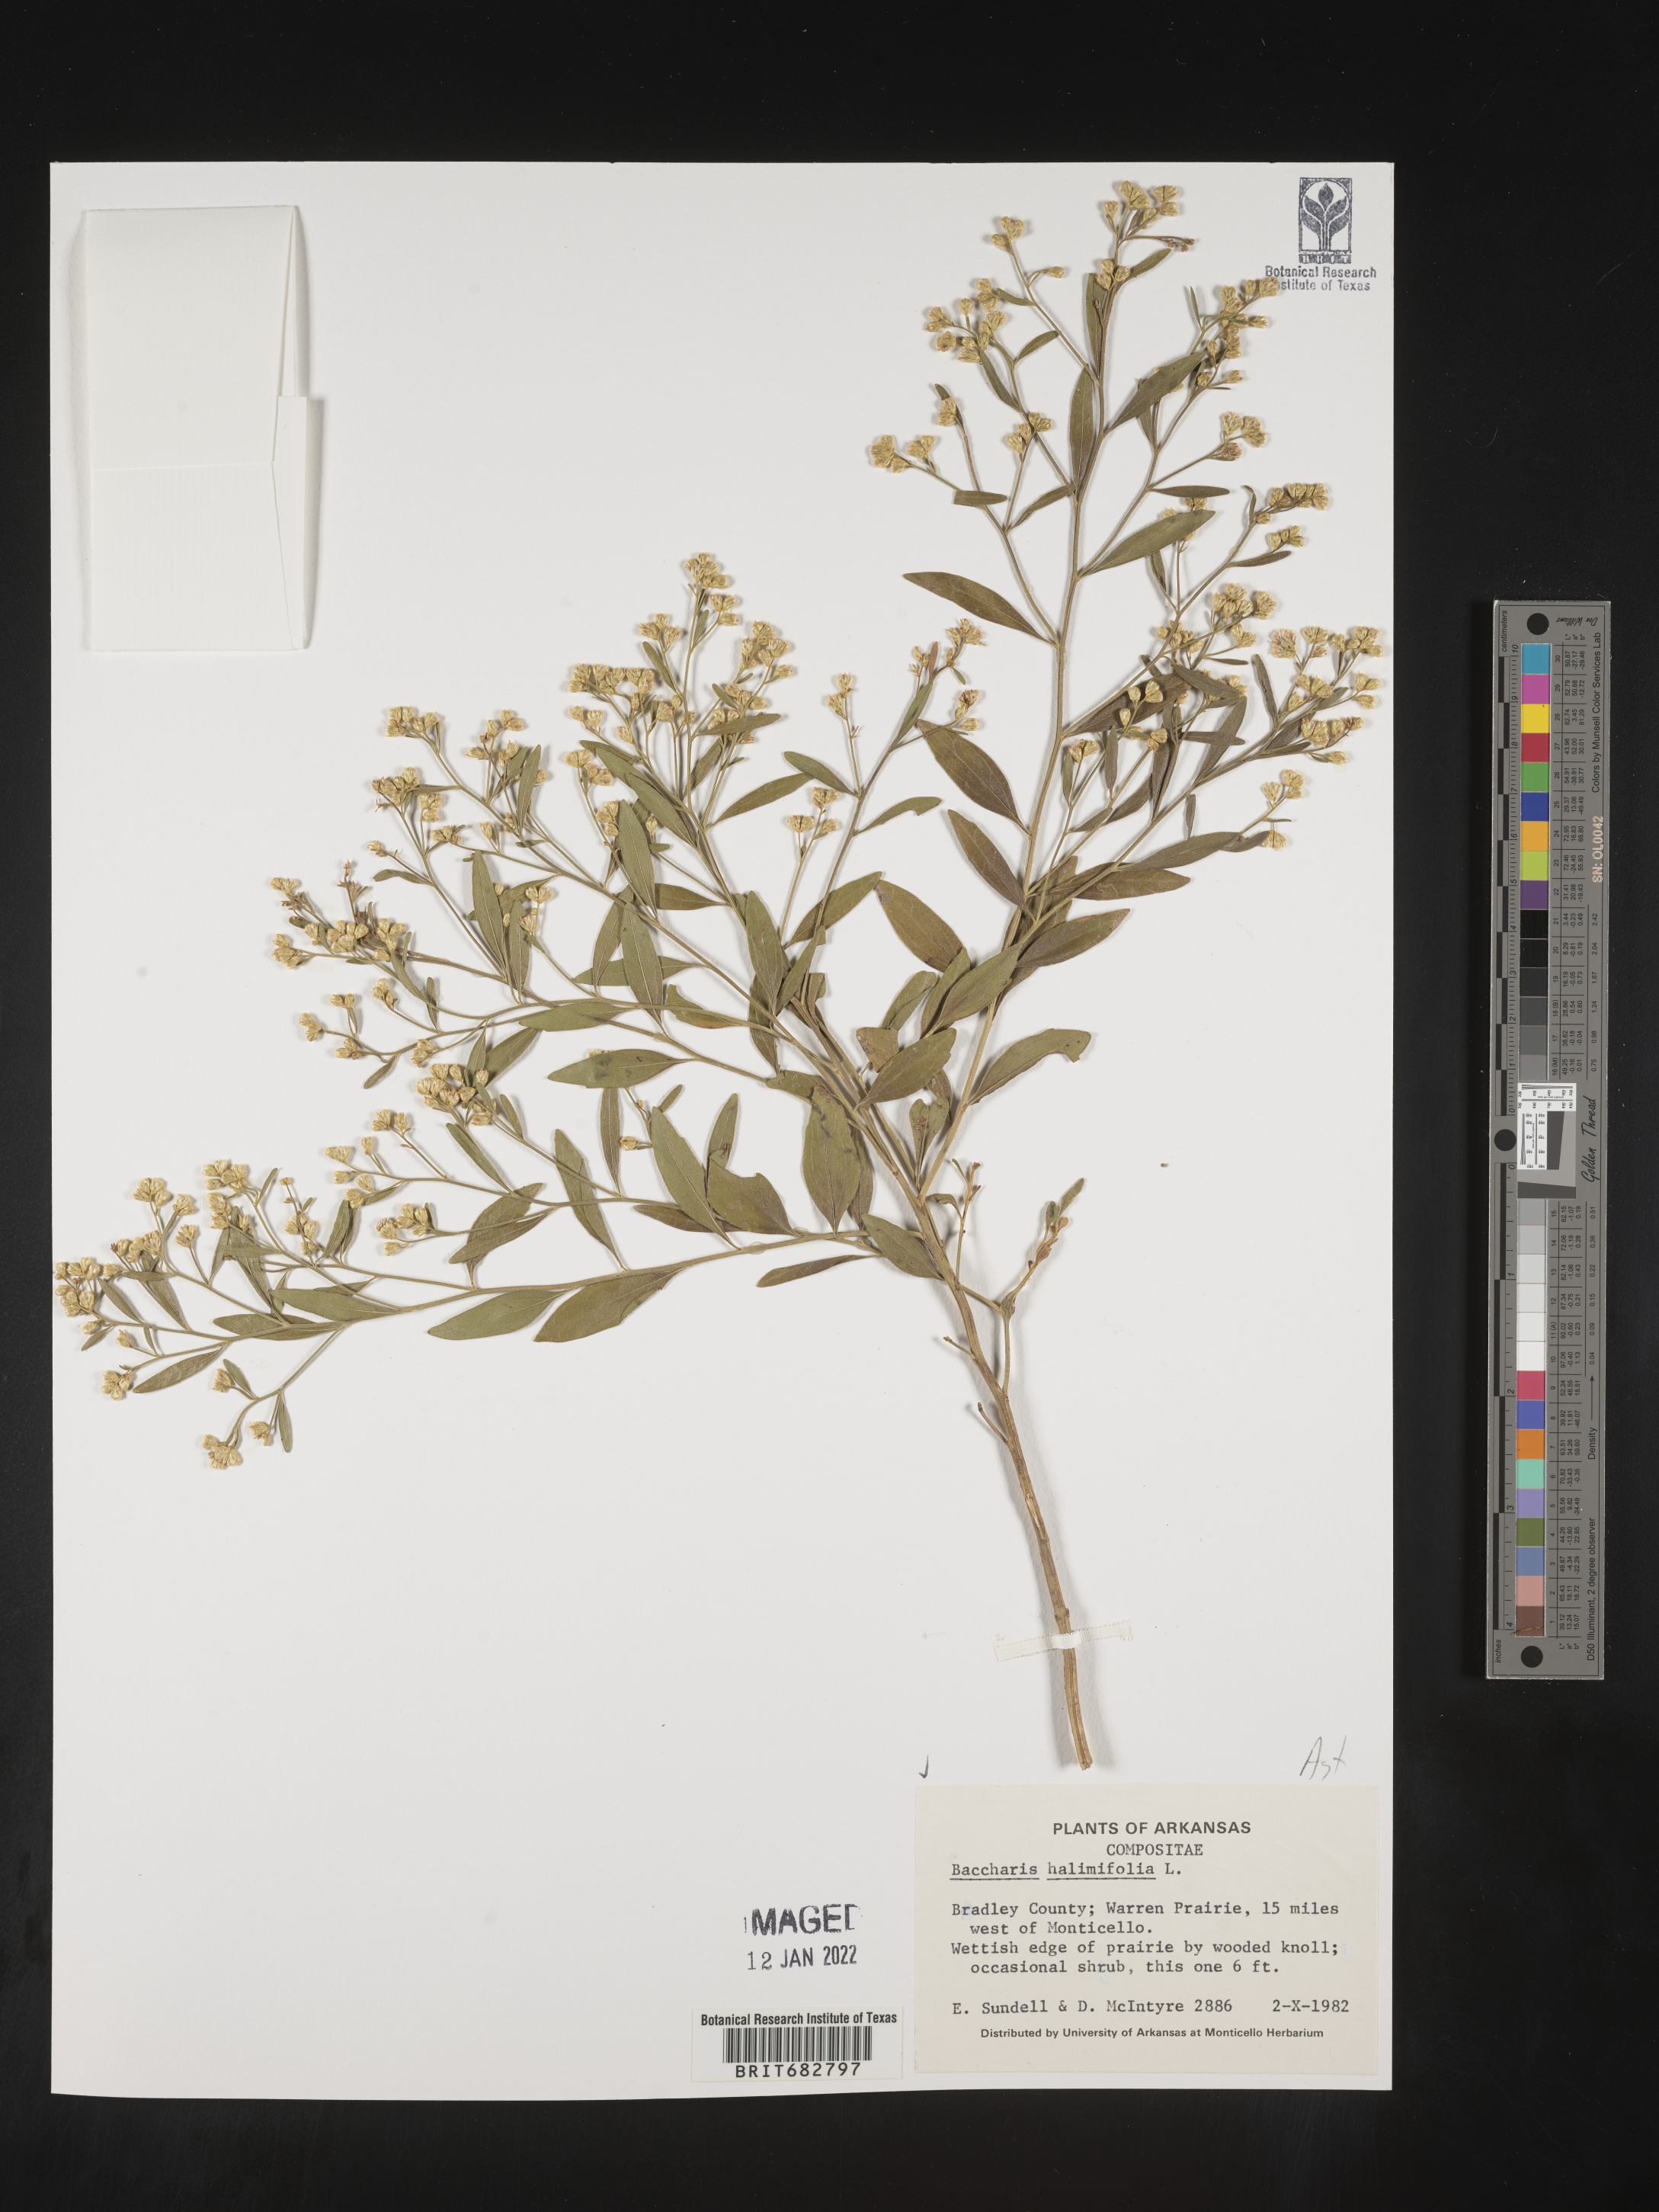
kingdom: Plantae
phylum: Tracheophyta
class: Magnoliopsida
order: Asterales
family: Asteraceae
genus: Nidorella
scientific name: Nidorella ivifolia
